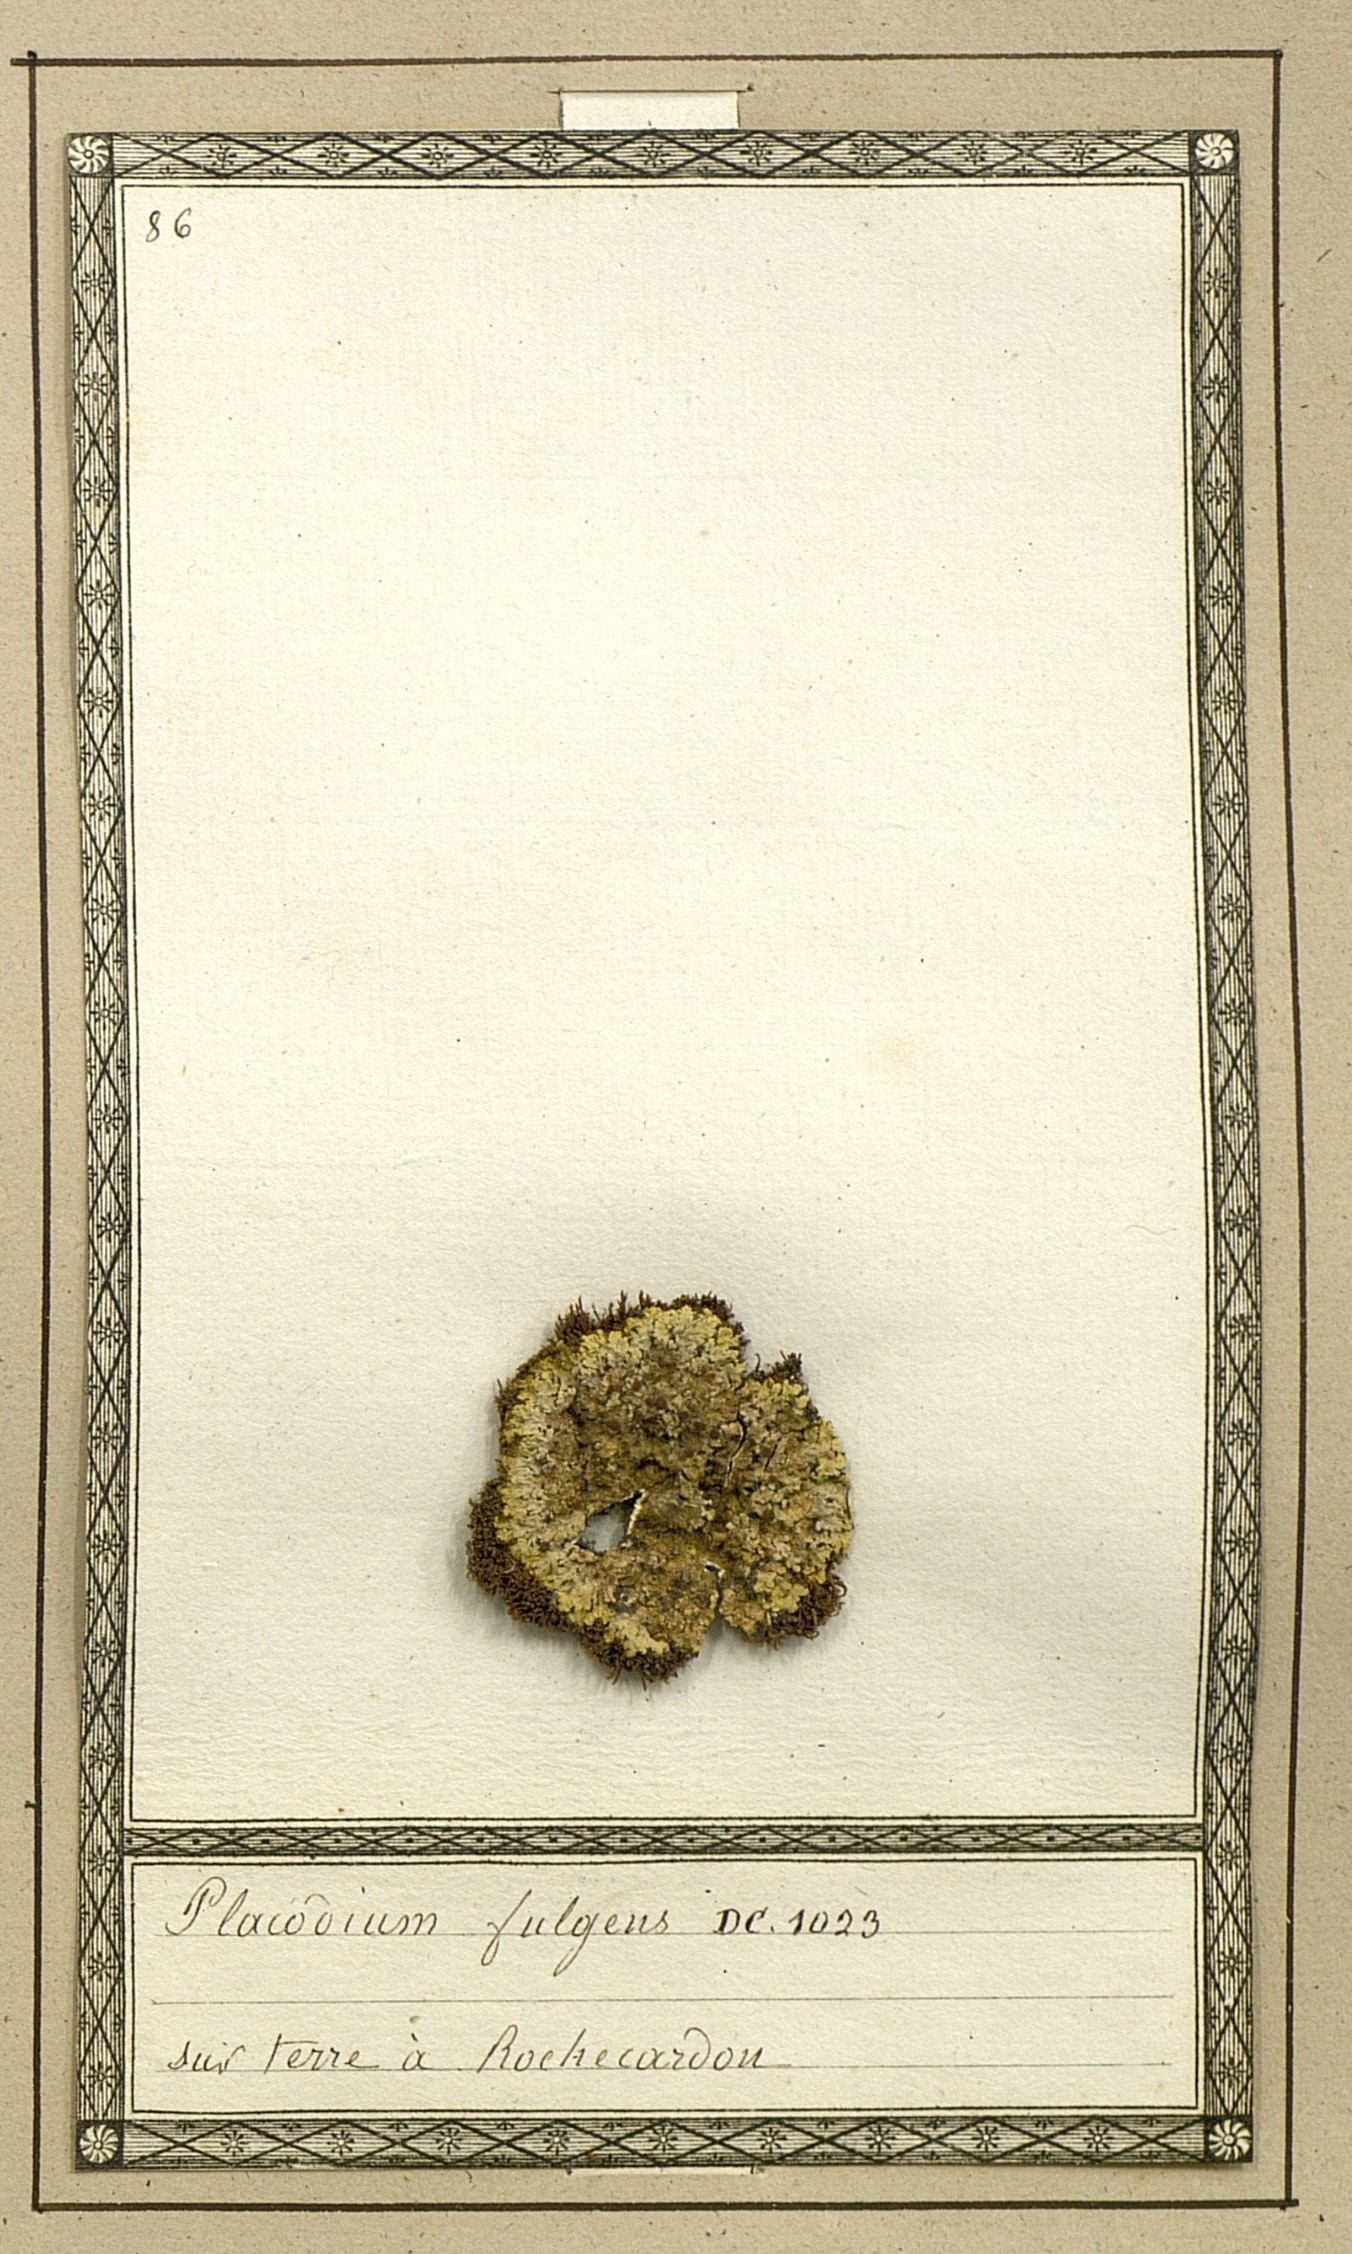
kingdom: Fungi
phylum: Ascomycota
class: Lecanoromycetes
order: Teloschistales
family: Teloschistaceae
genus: Gyalolechia
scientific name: Gyalolechia fulgens
